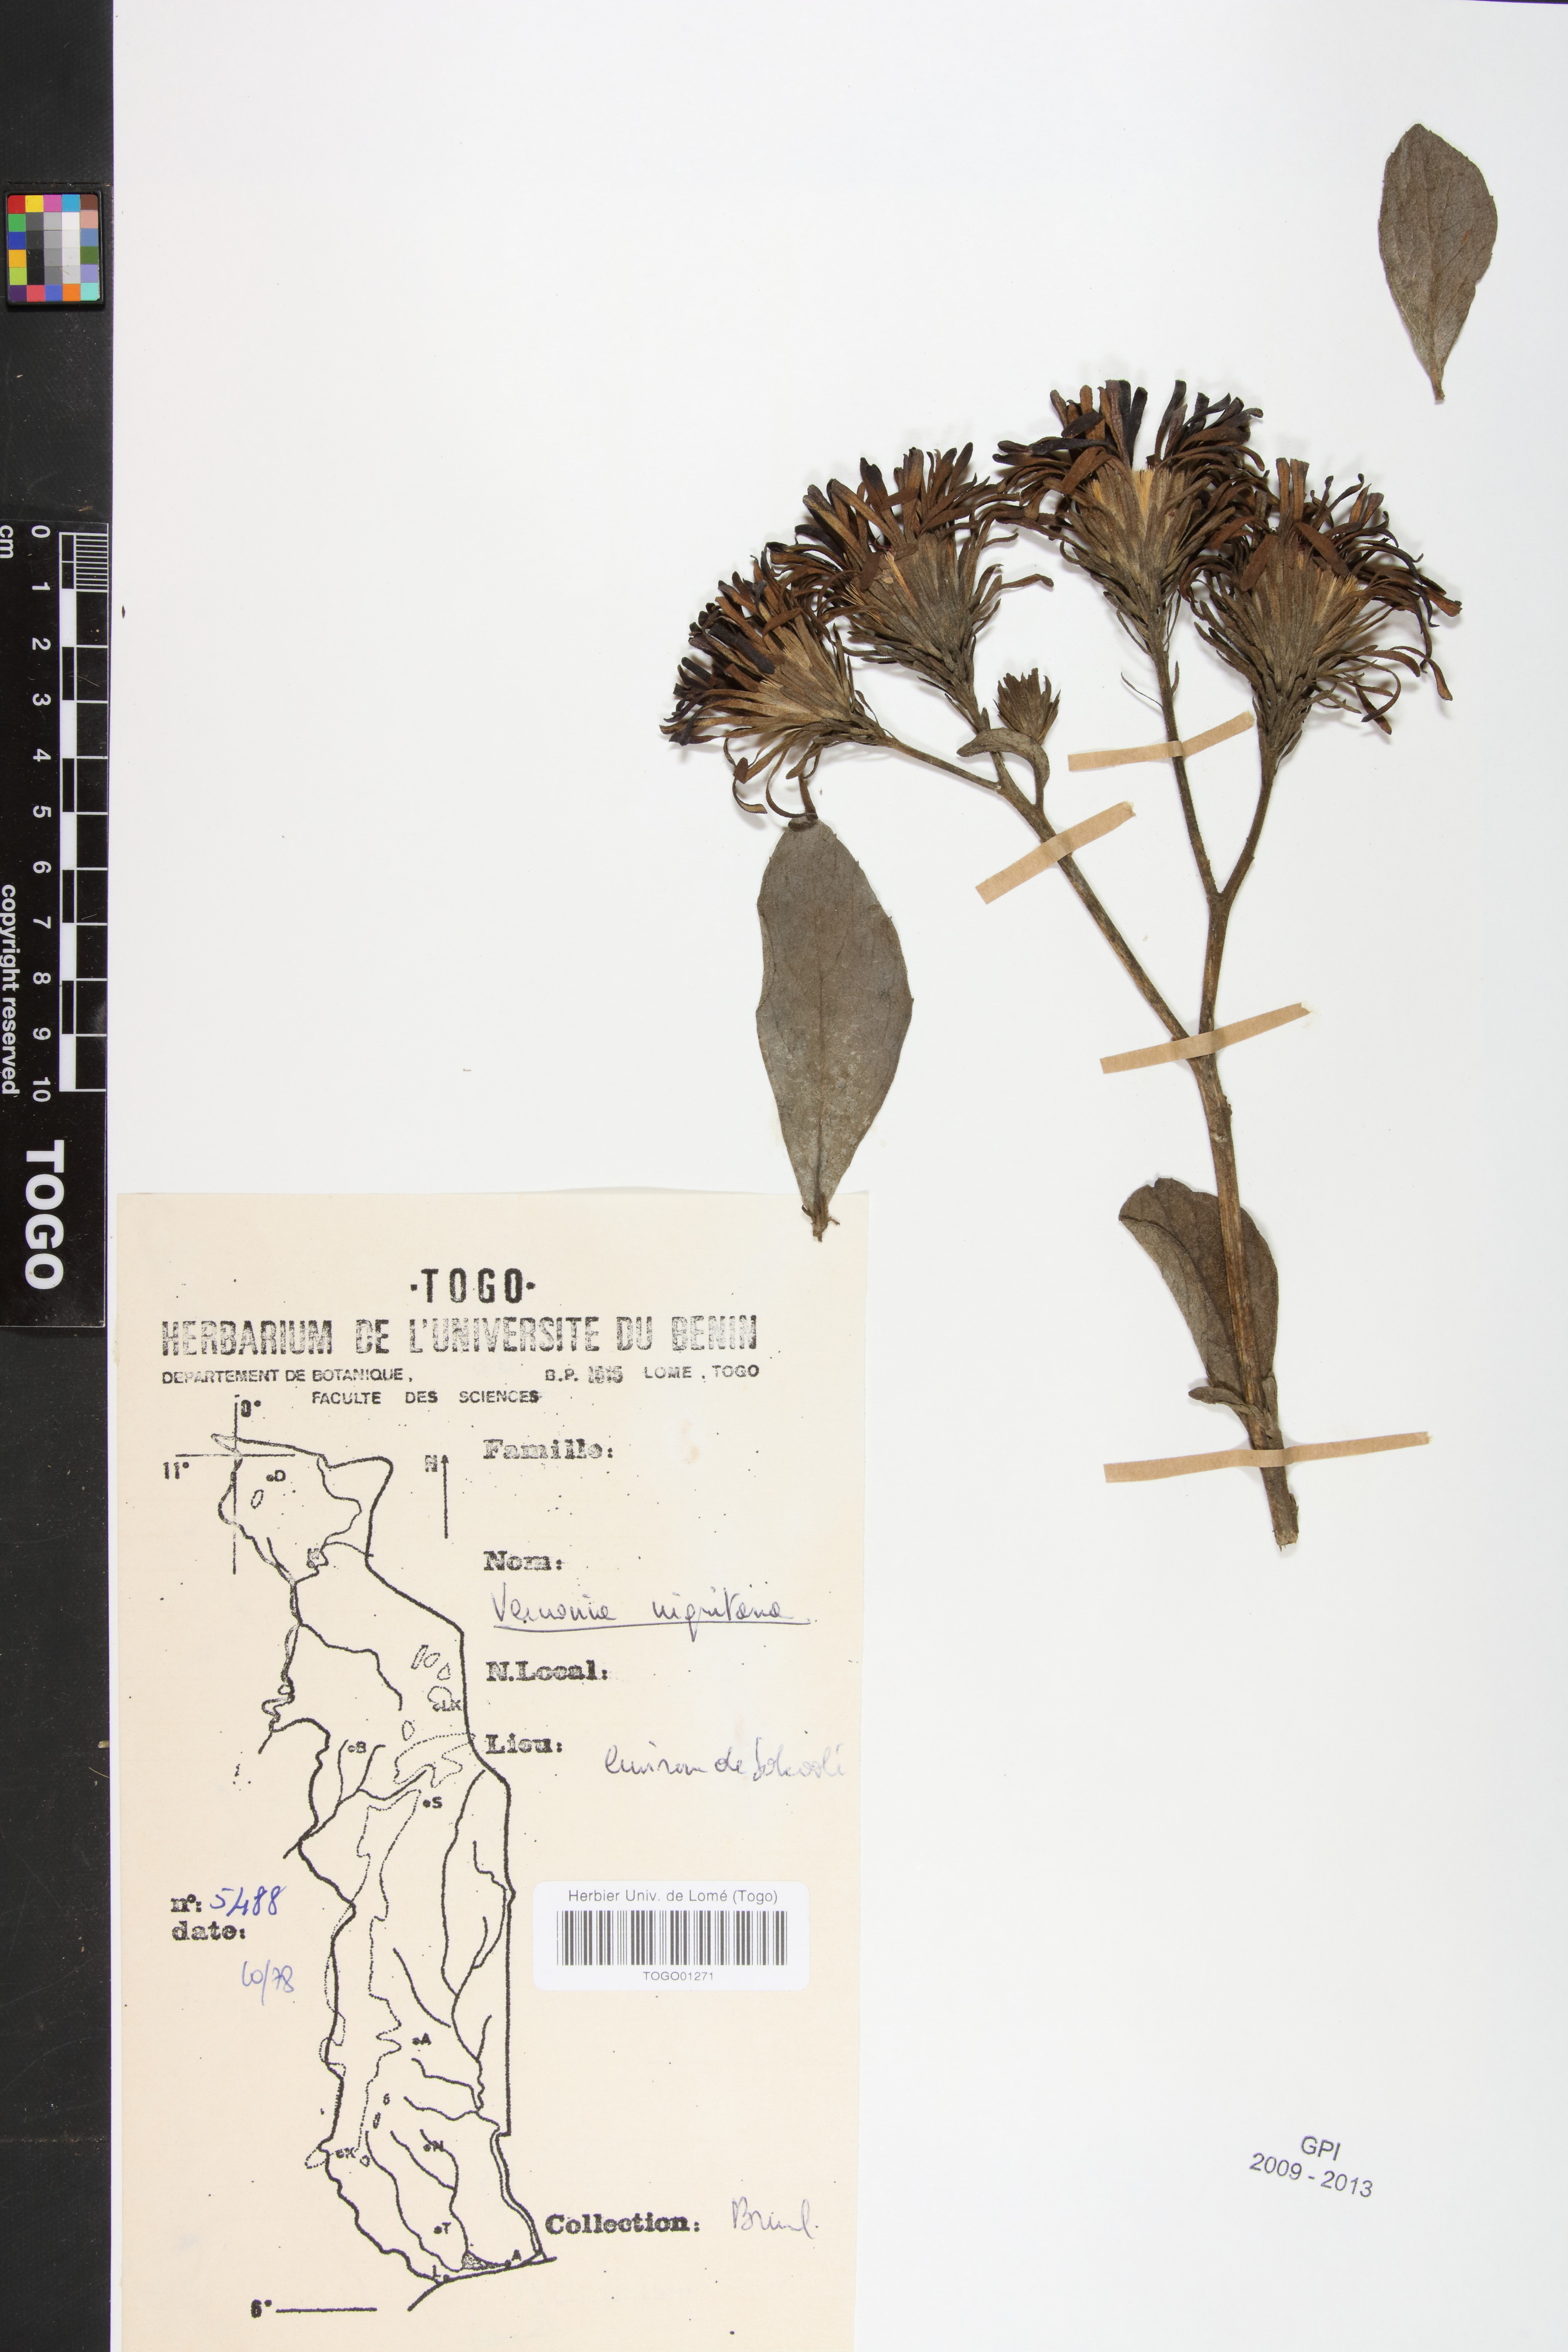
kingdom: Plantae
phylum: Tracheophyta
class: Magnoliopsida
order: Asterales
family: Asteraceae
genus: Linzia
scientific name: Linzia nigritiana
